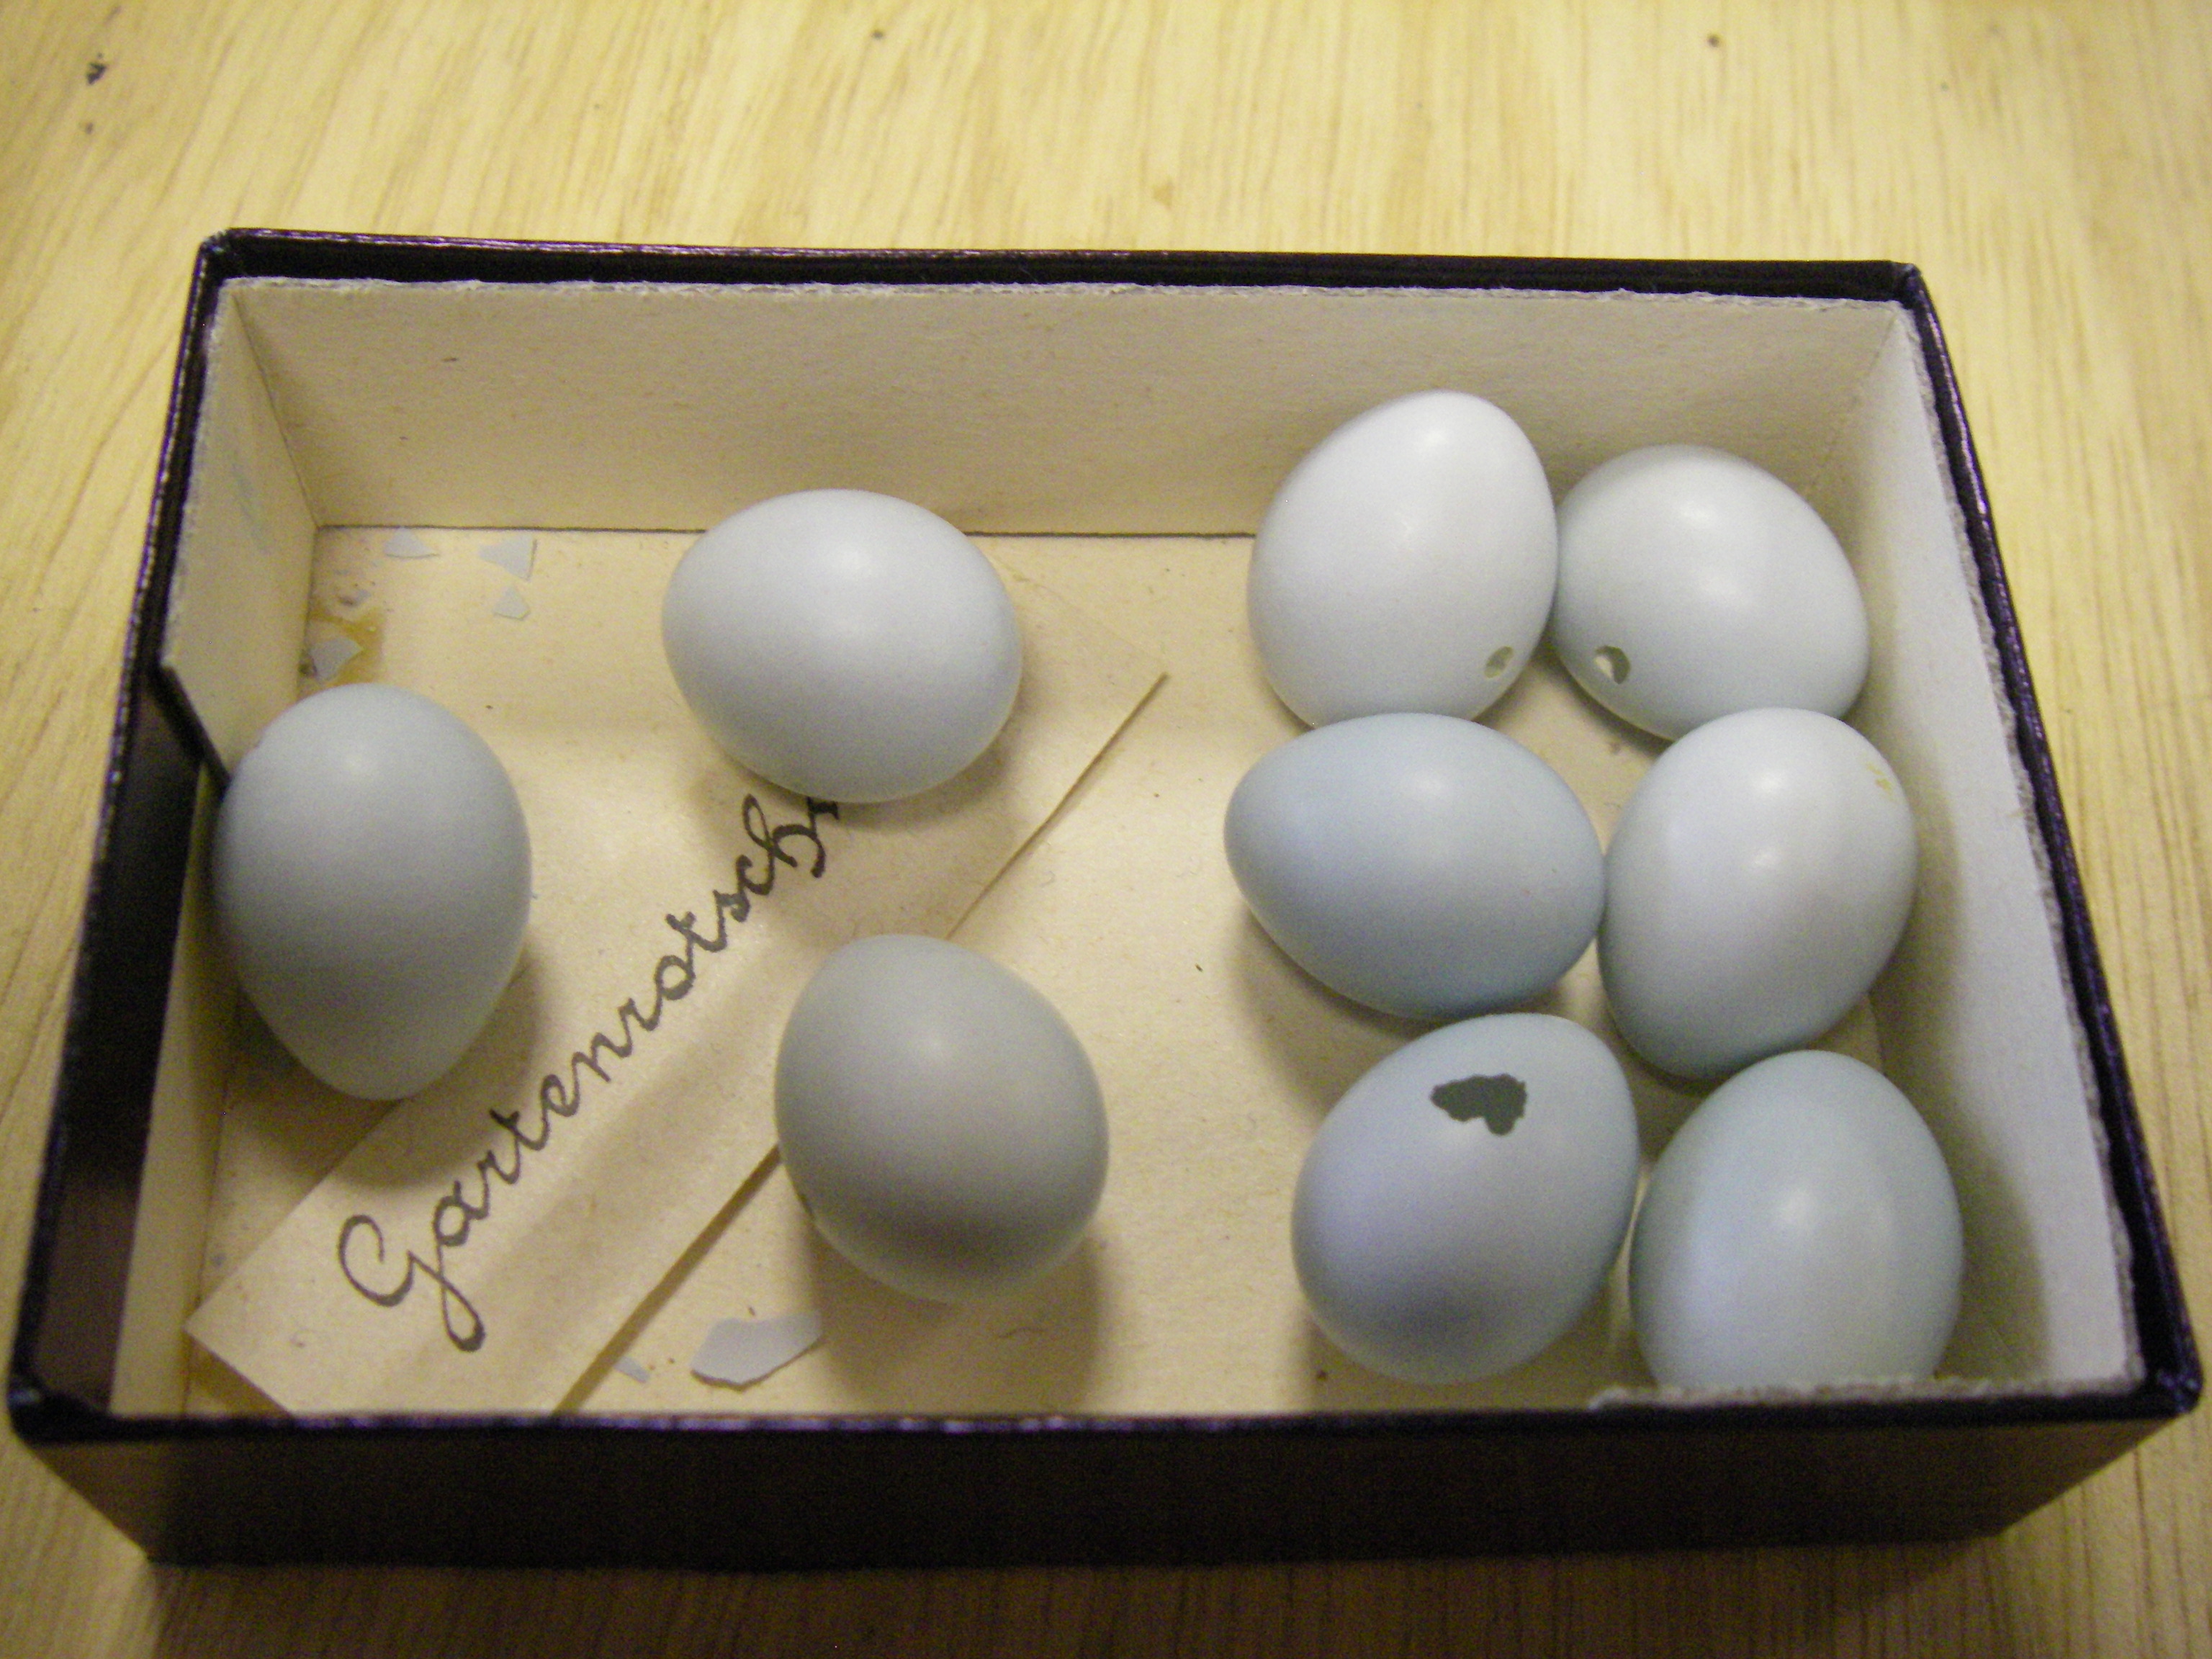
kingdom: Animalia
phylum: Chordata
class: Aves
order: Passeriformes
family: Muscicapidae
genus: Phoenicurus
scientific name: Phoenicurus phoenicurus
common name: Common redstart
